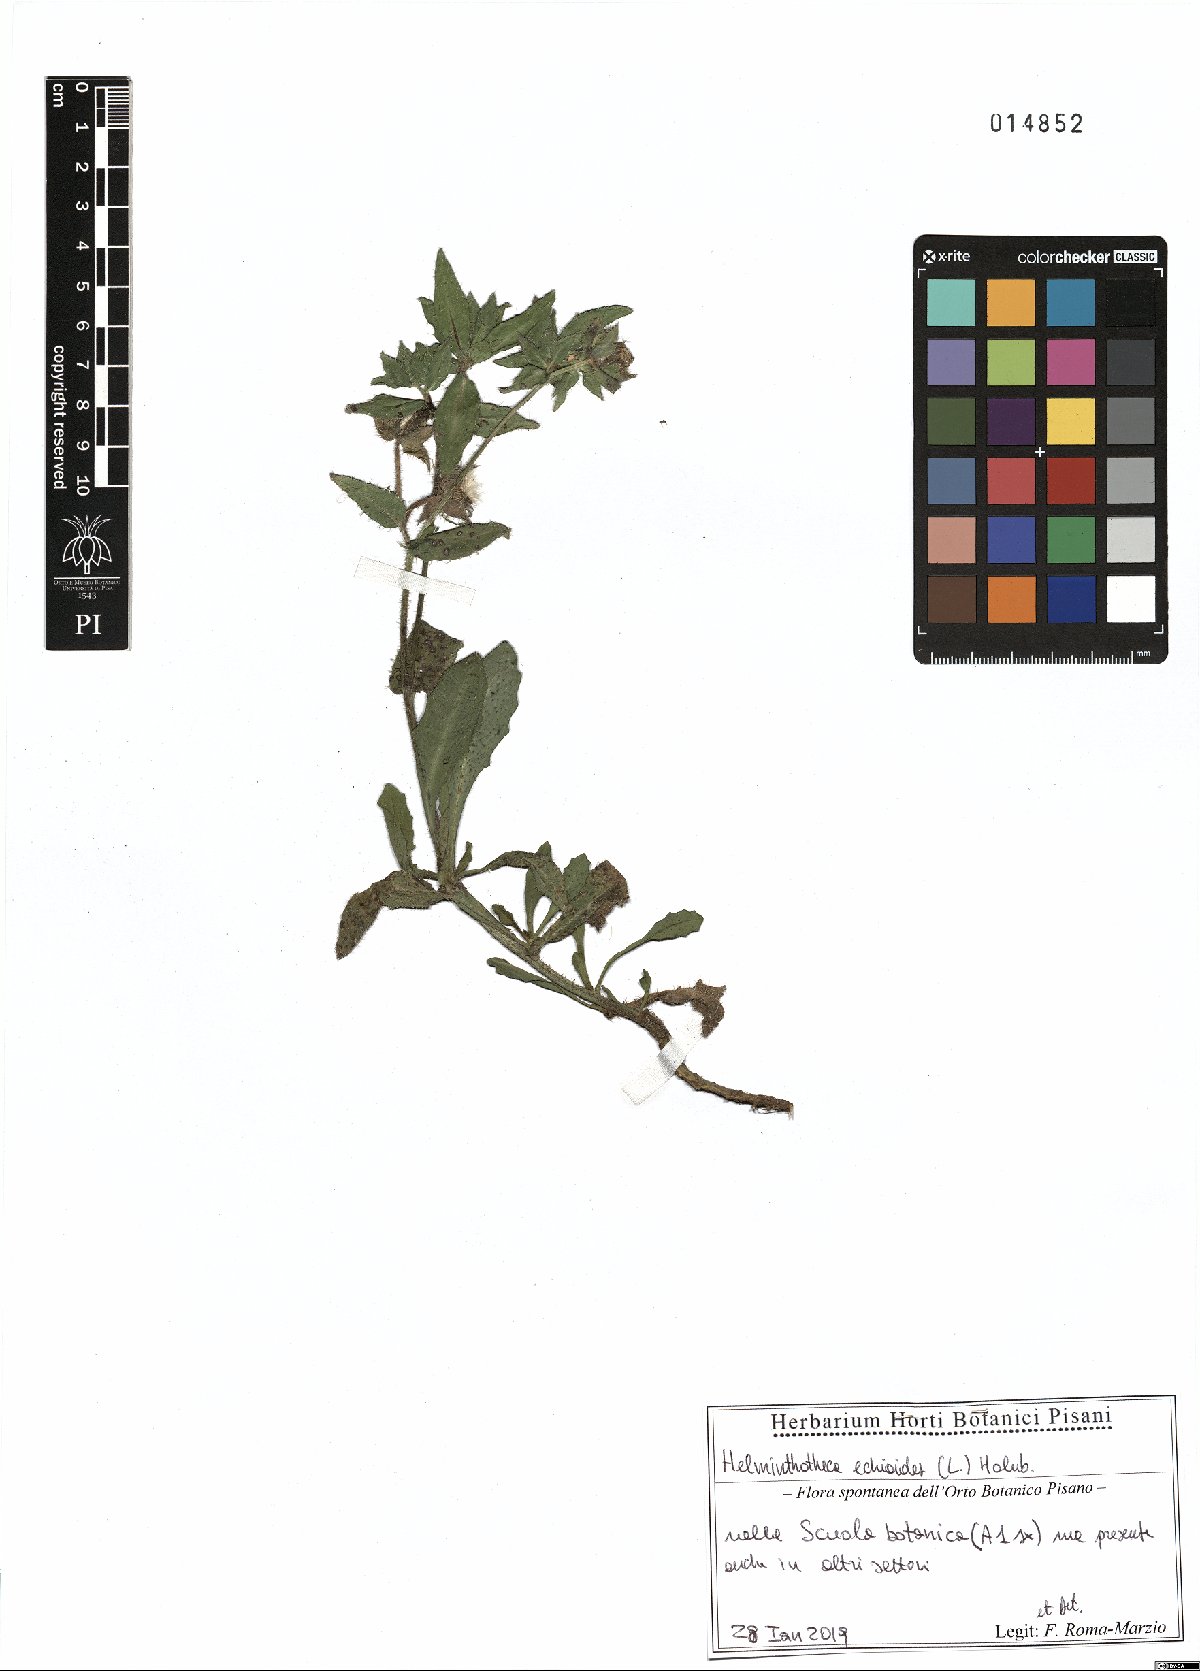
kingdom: Plantae
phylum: Tracheophyta
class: Magnoliopsida
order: Asterales
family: Asteraceae
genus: Helminthotheca
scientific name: Helminthotheca echioides
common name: Ox-tongue
